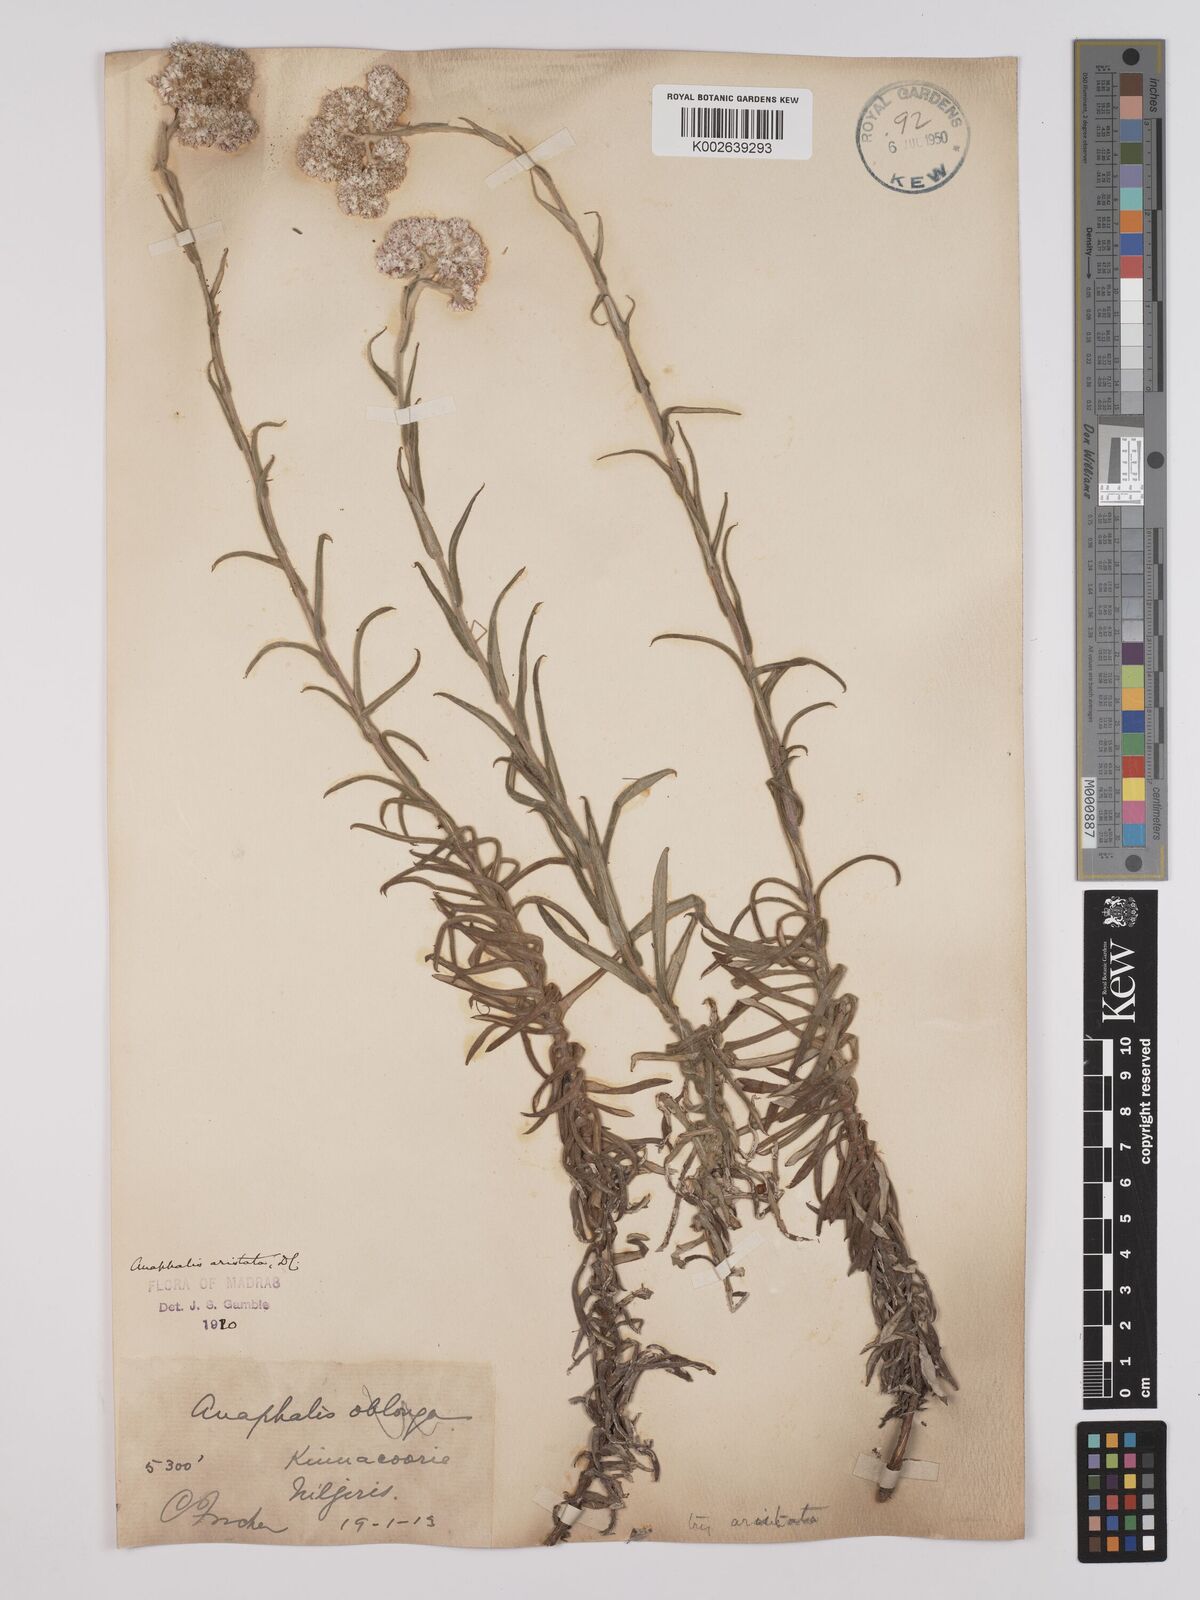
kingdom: Plantae
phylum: Tracheophyta
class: Magnoliopsida
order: Asterales
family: Asteraceae
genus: Anaphalis
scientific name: Anaphalis aristata
